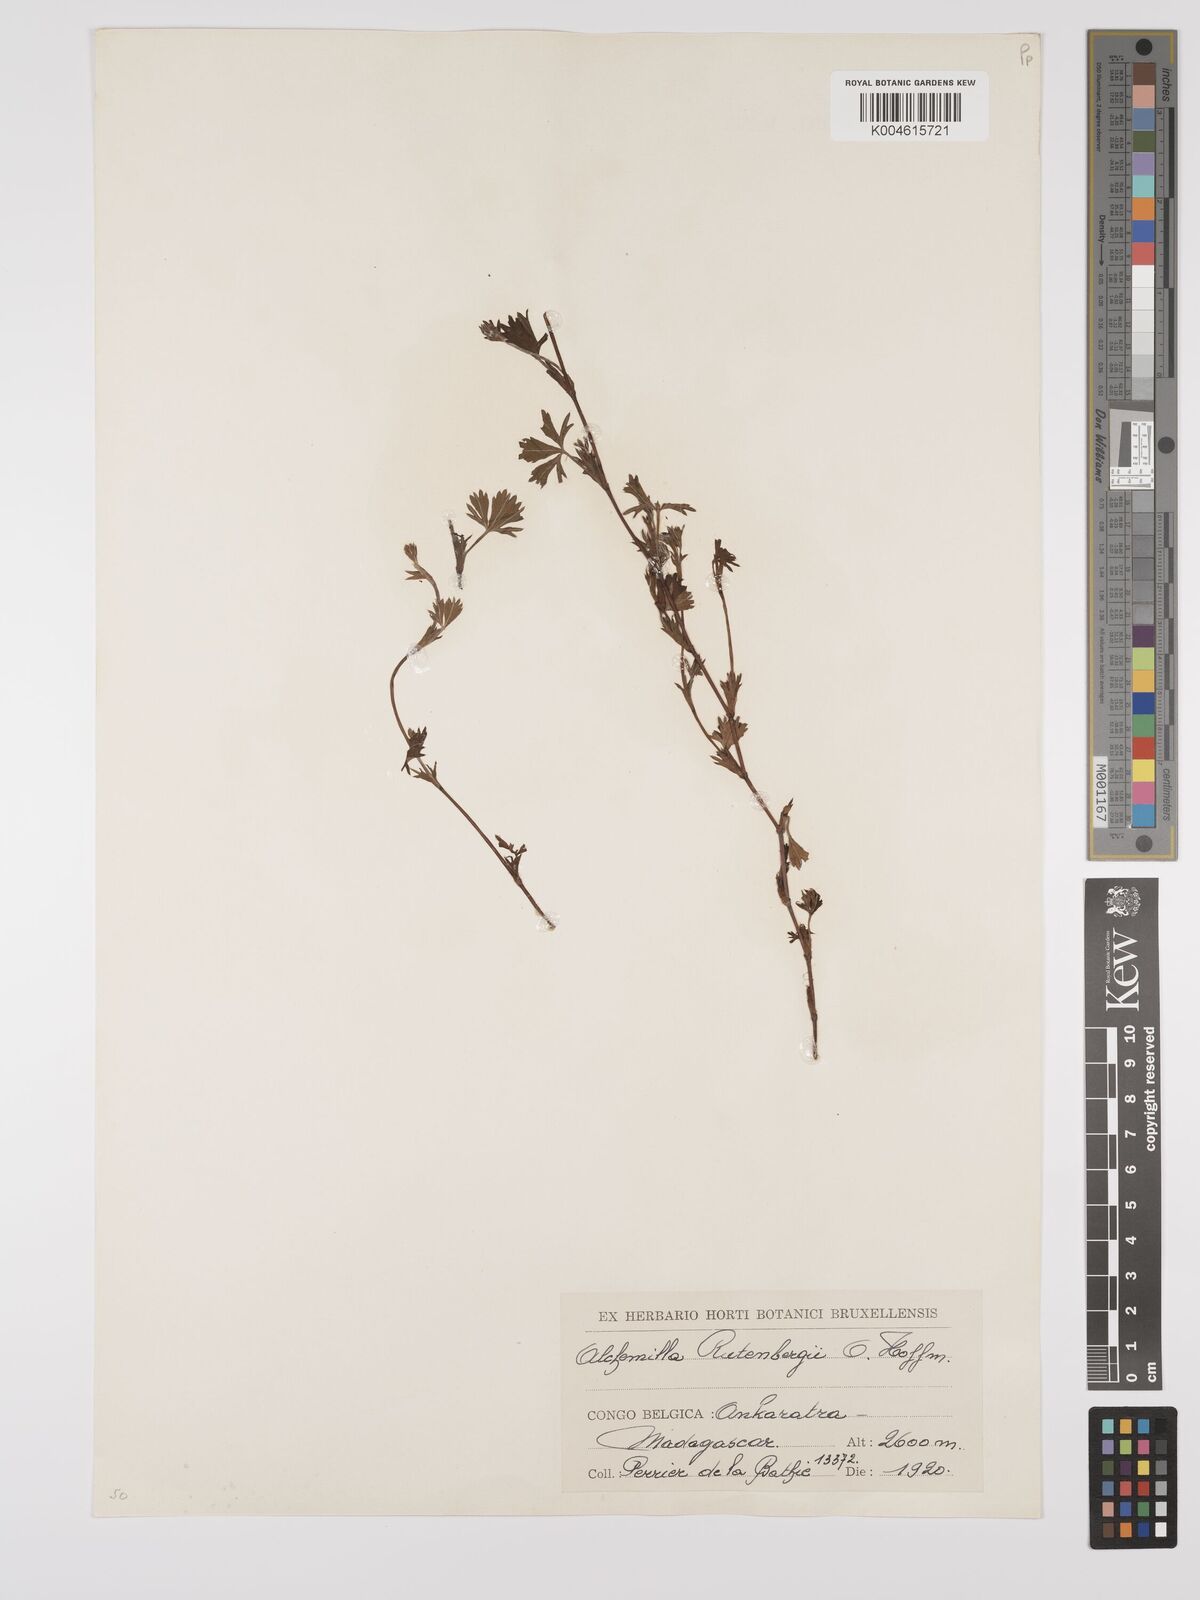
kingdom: Plantae
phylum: Tracheophyta
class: Magnoliopsida
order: Rosales
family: Rosaceae
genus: Alchemilla
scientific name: Alchemilla rutenbergii
